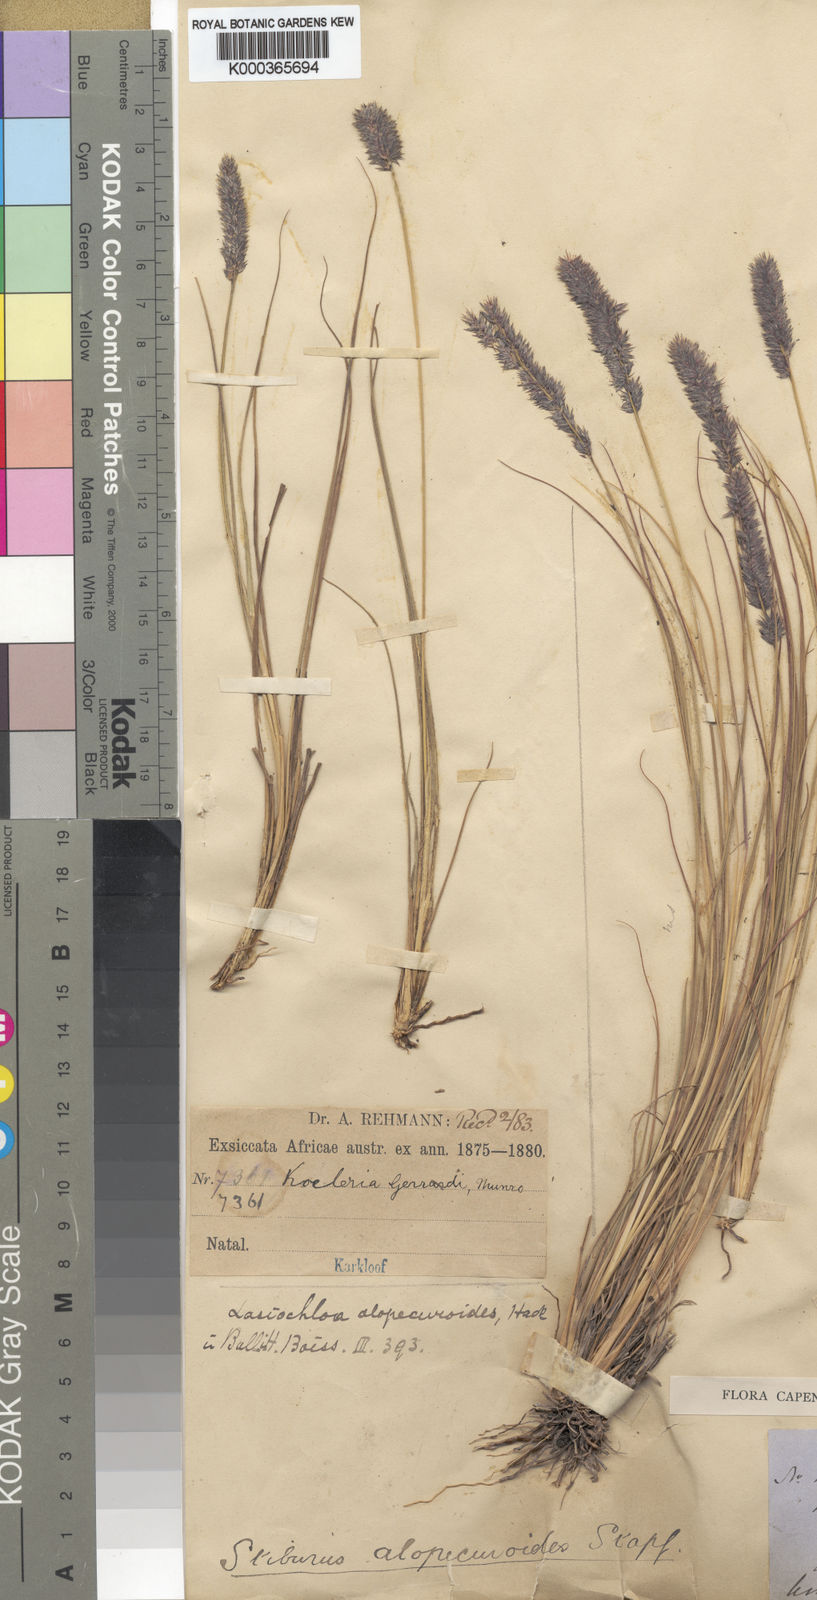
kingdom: Plantae
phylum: Tracheophyta
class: Liliopsida
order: Poales
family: Poaceae
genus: Eragrostis
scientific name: Eragrostis alopecuroides
